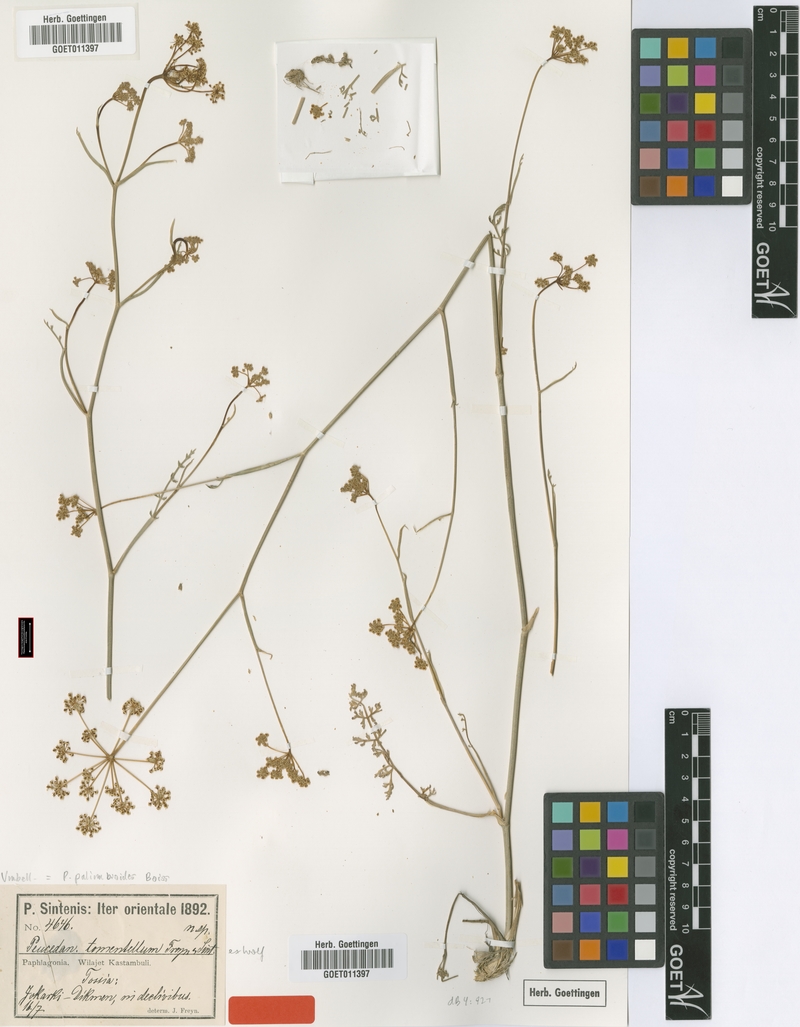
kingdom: Plantae
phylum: Tracheophyta
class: Magnoliopsida
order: Apiales
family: Apiaceae
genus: Dichoropetalum
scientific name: Dichoropetalum palimbioides
